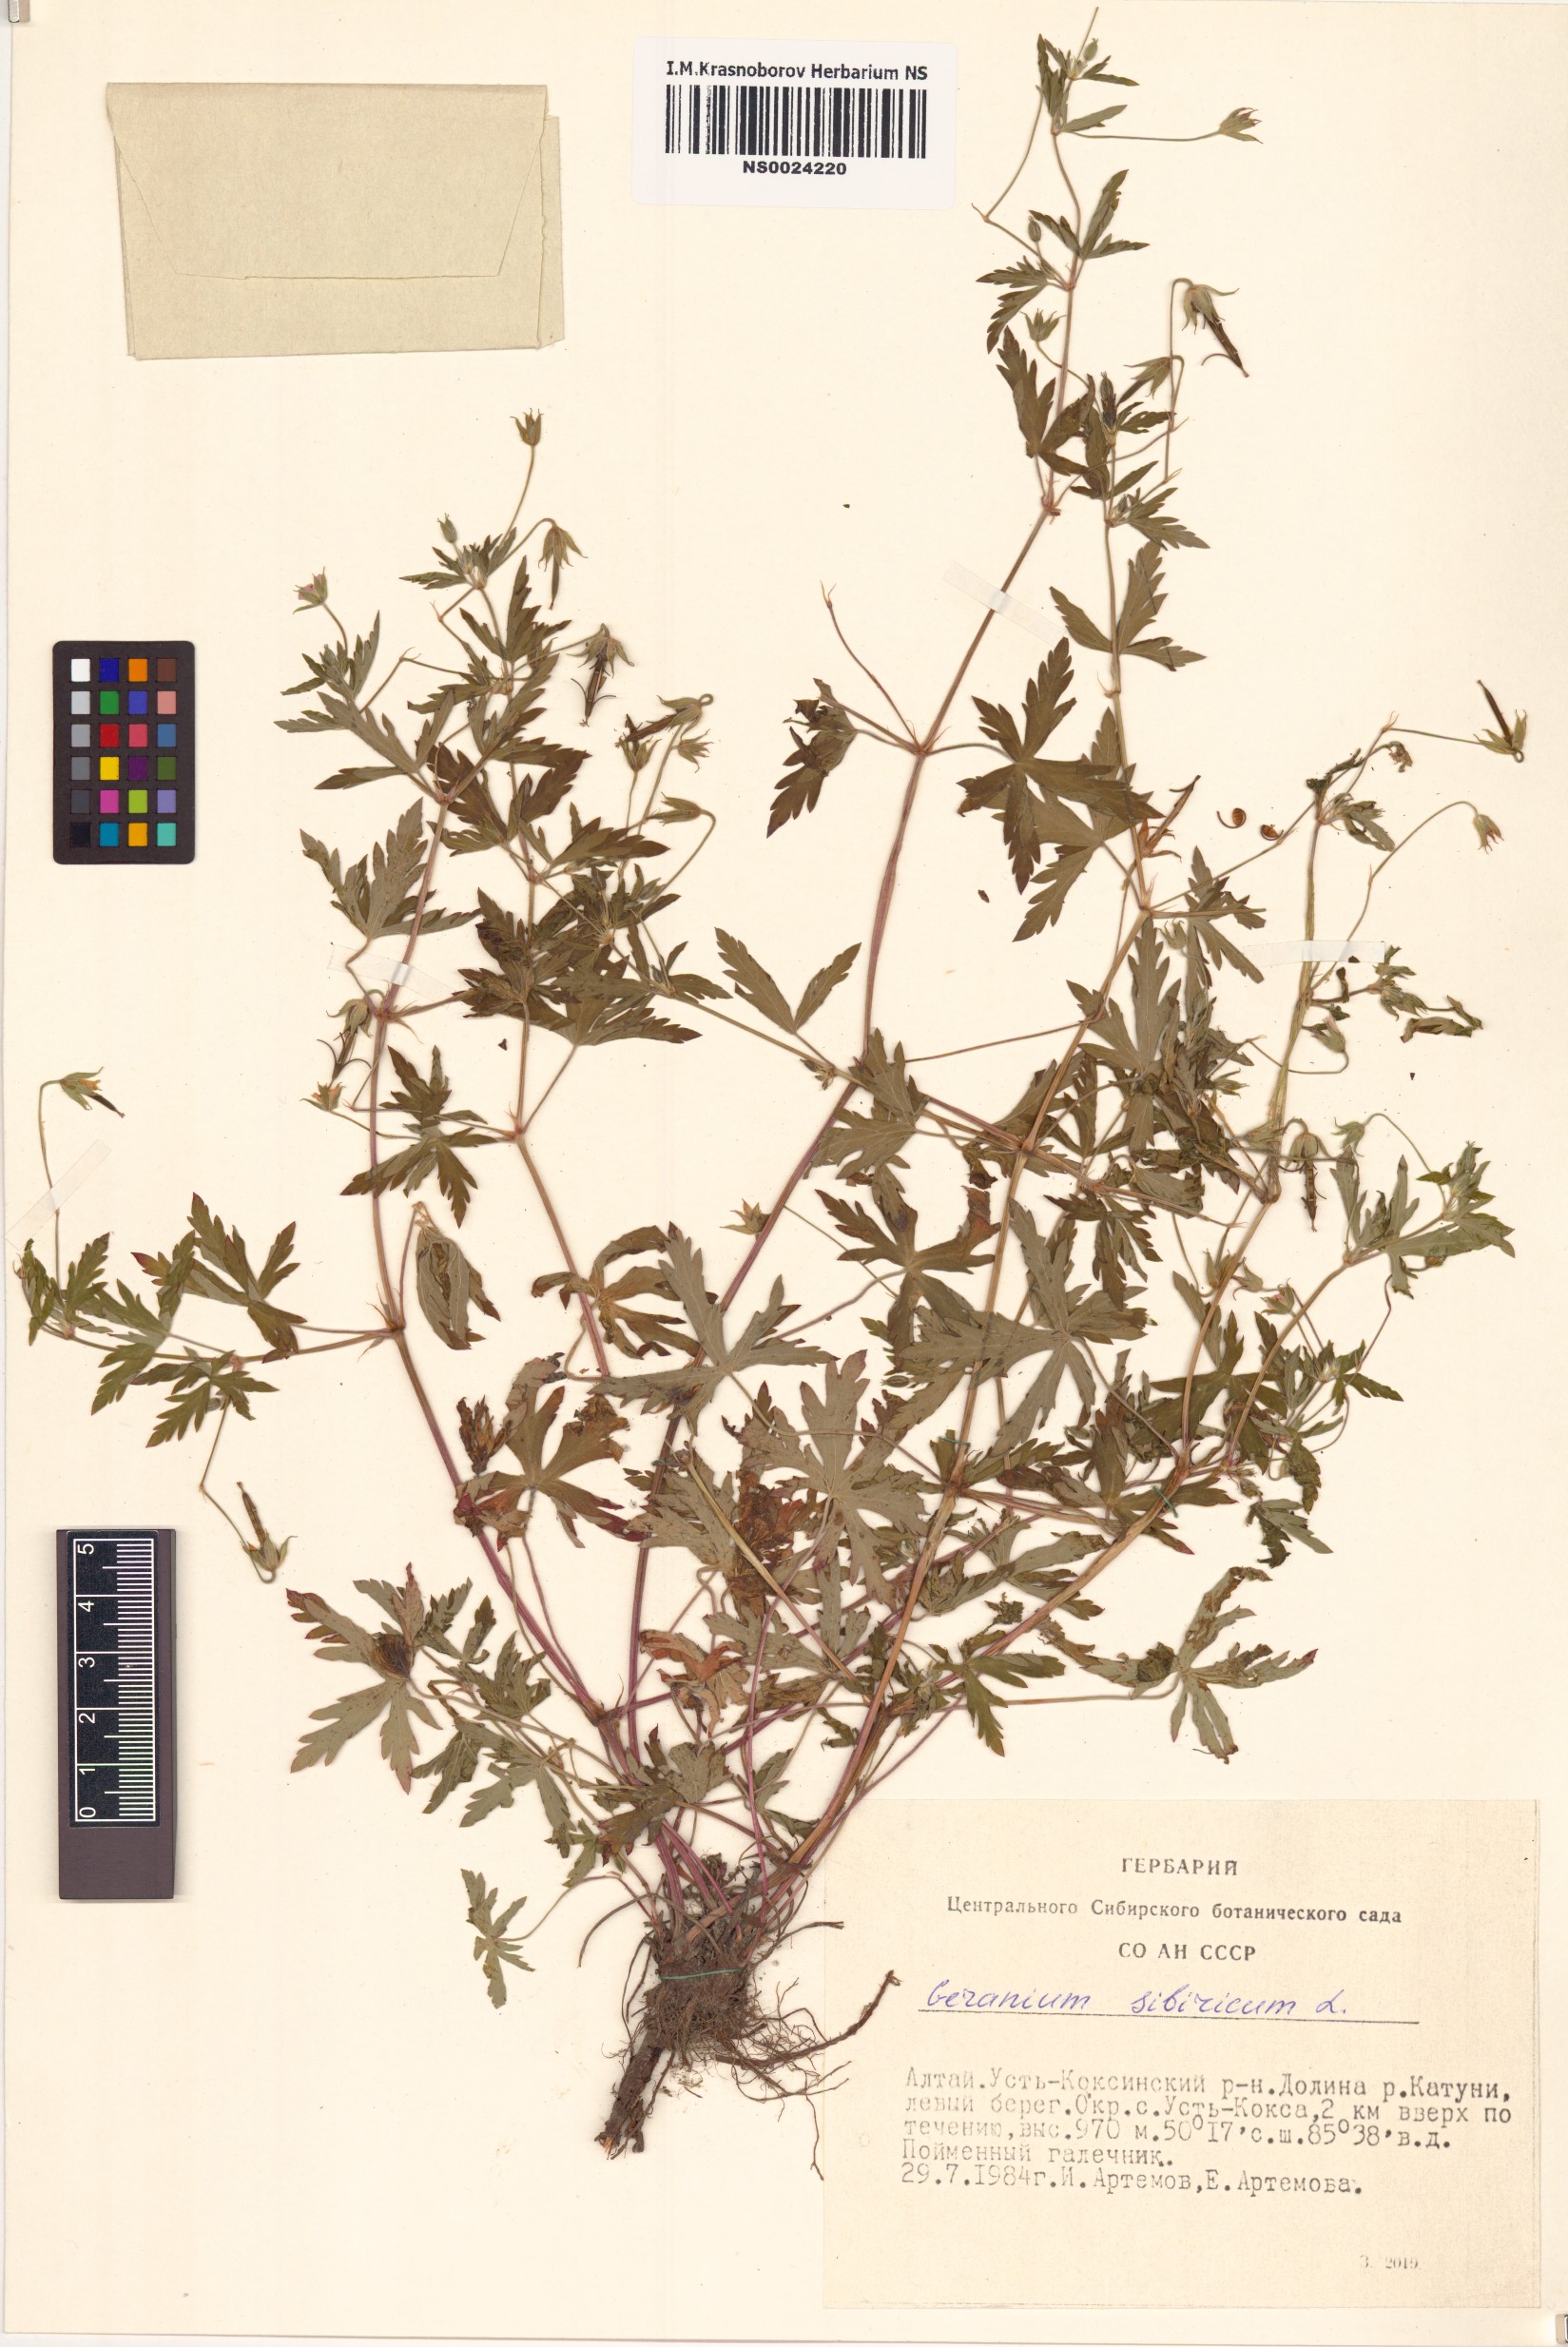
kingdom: Plantae
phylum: Tracheophyta
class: Magnoliopsida
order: Geraniales
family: Geraniaceae
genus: Geranium
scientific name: Geranium sibiricum
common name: Siberian crane's-bill
